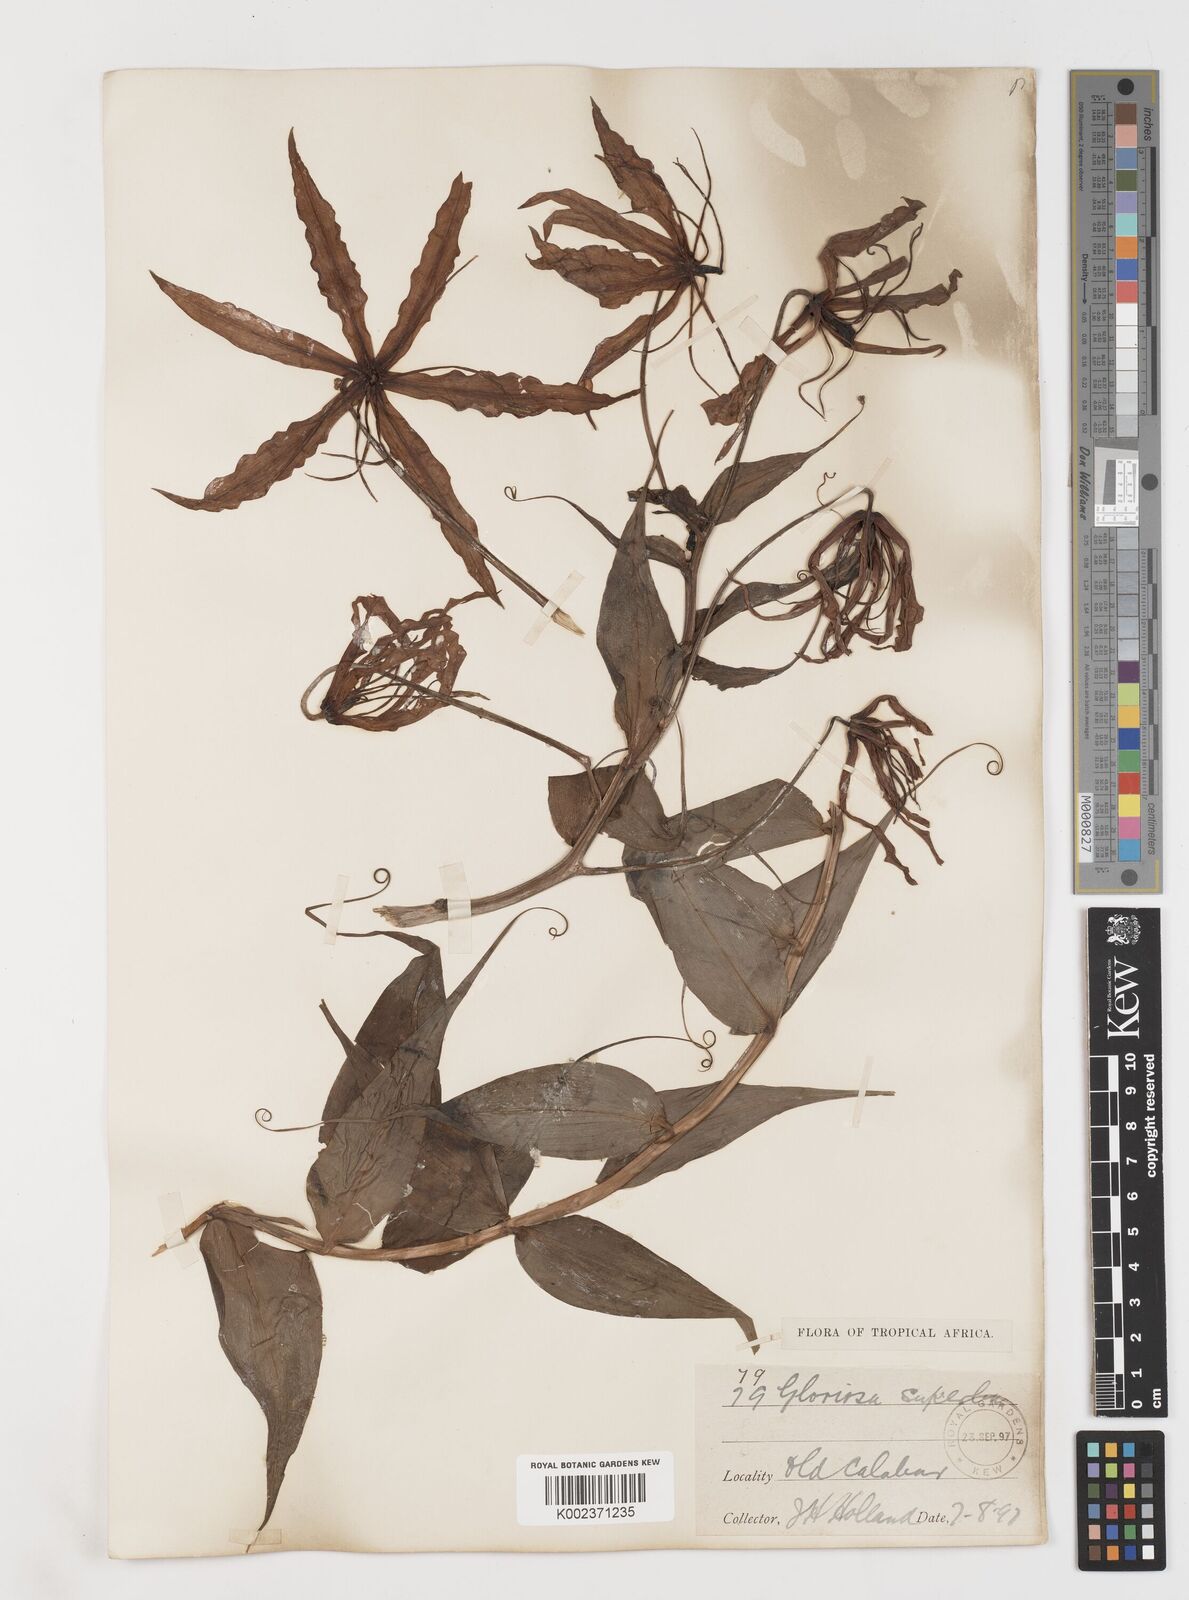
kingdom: Plantae
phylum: Tracheophyta
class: Liliopsida
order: Liliales
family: Colchicaceae
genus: Gloriosa
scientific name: Gloriosa superba
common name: Flame lily
